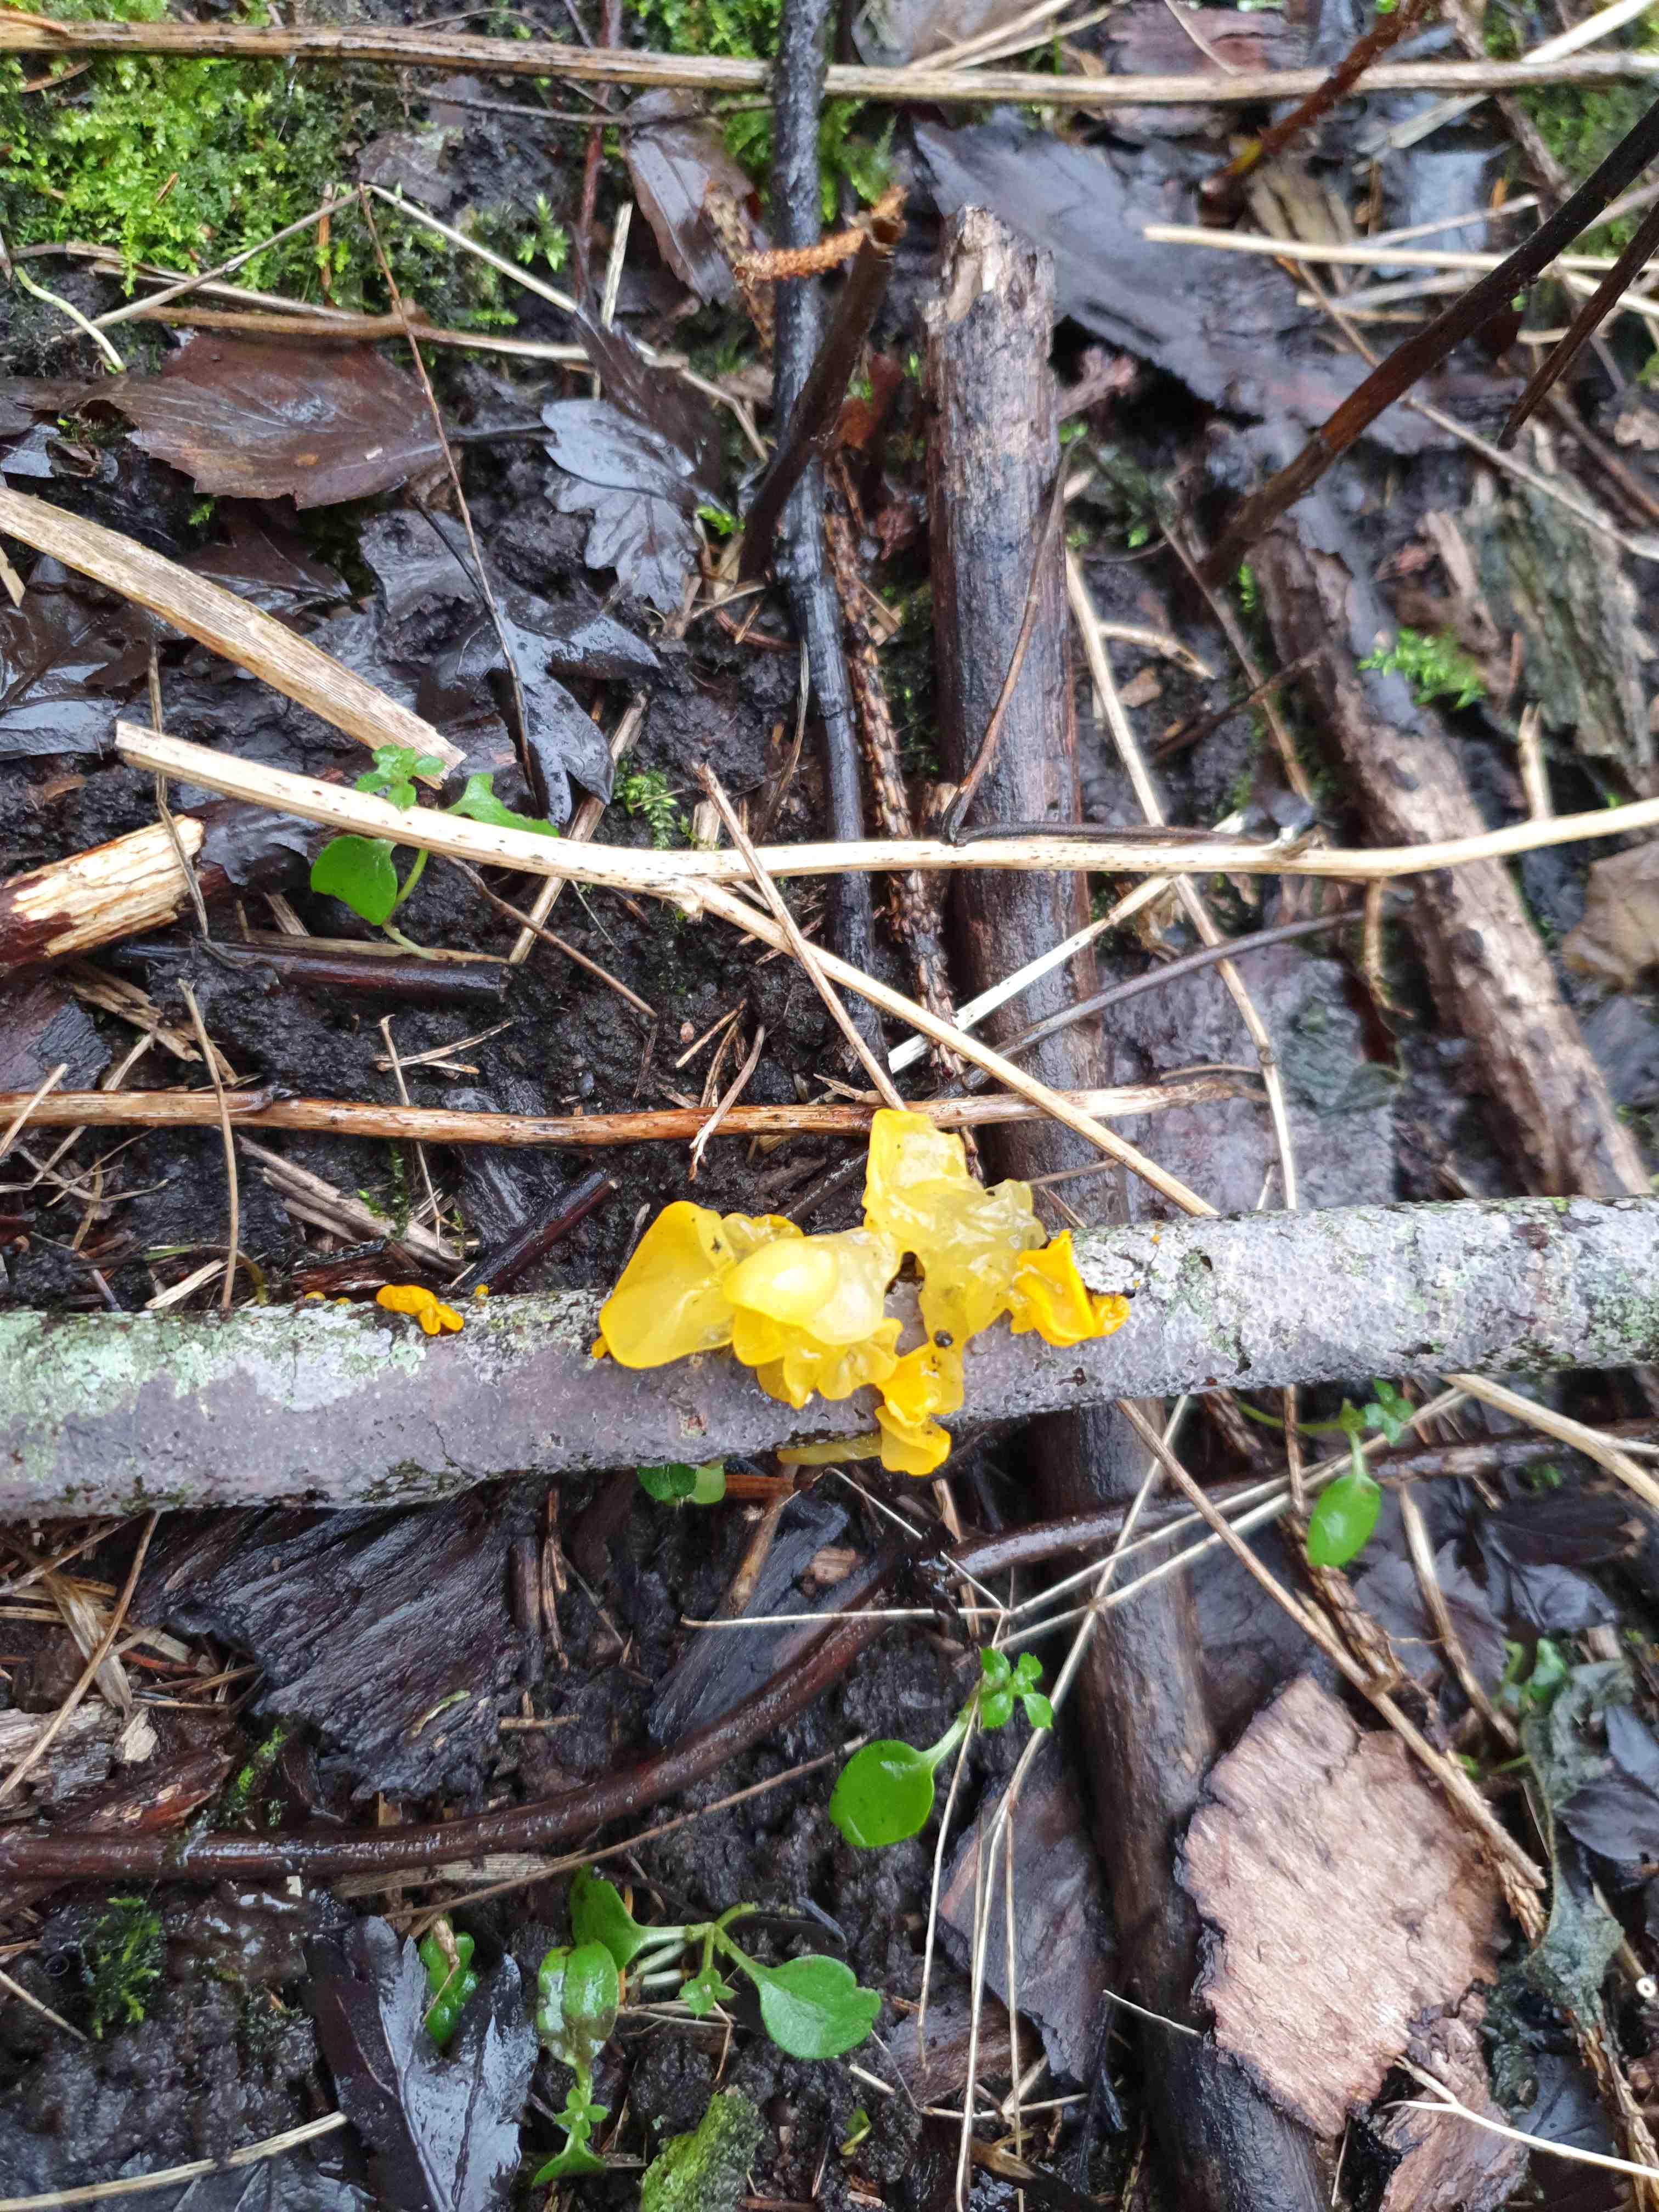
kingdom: Fungi
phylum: Basidiomycota
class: Tremellomycetes
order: Tremellales
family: Tremellaceae
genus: Tremella
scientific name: Tremella mesenterica
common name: gul bævresvamp
